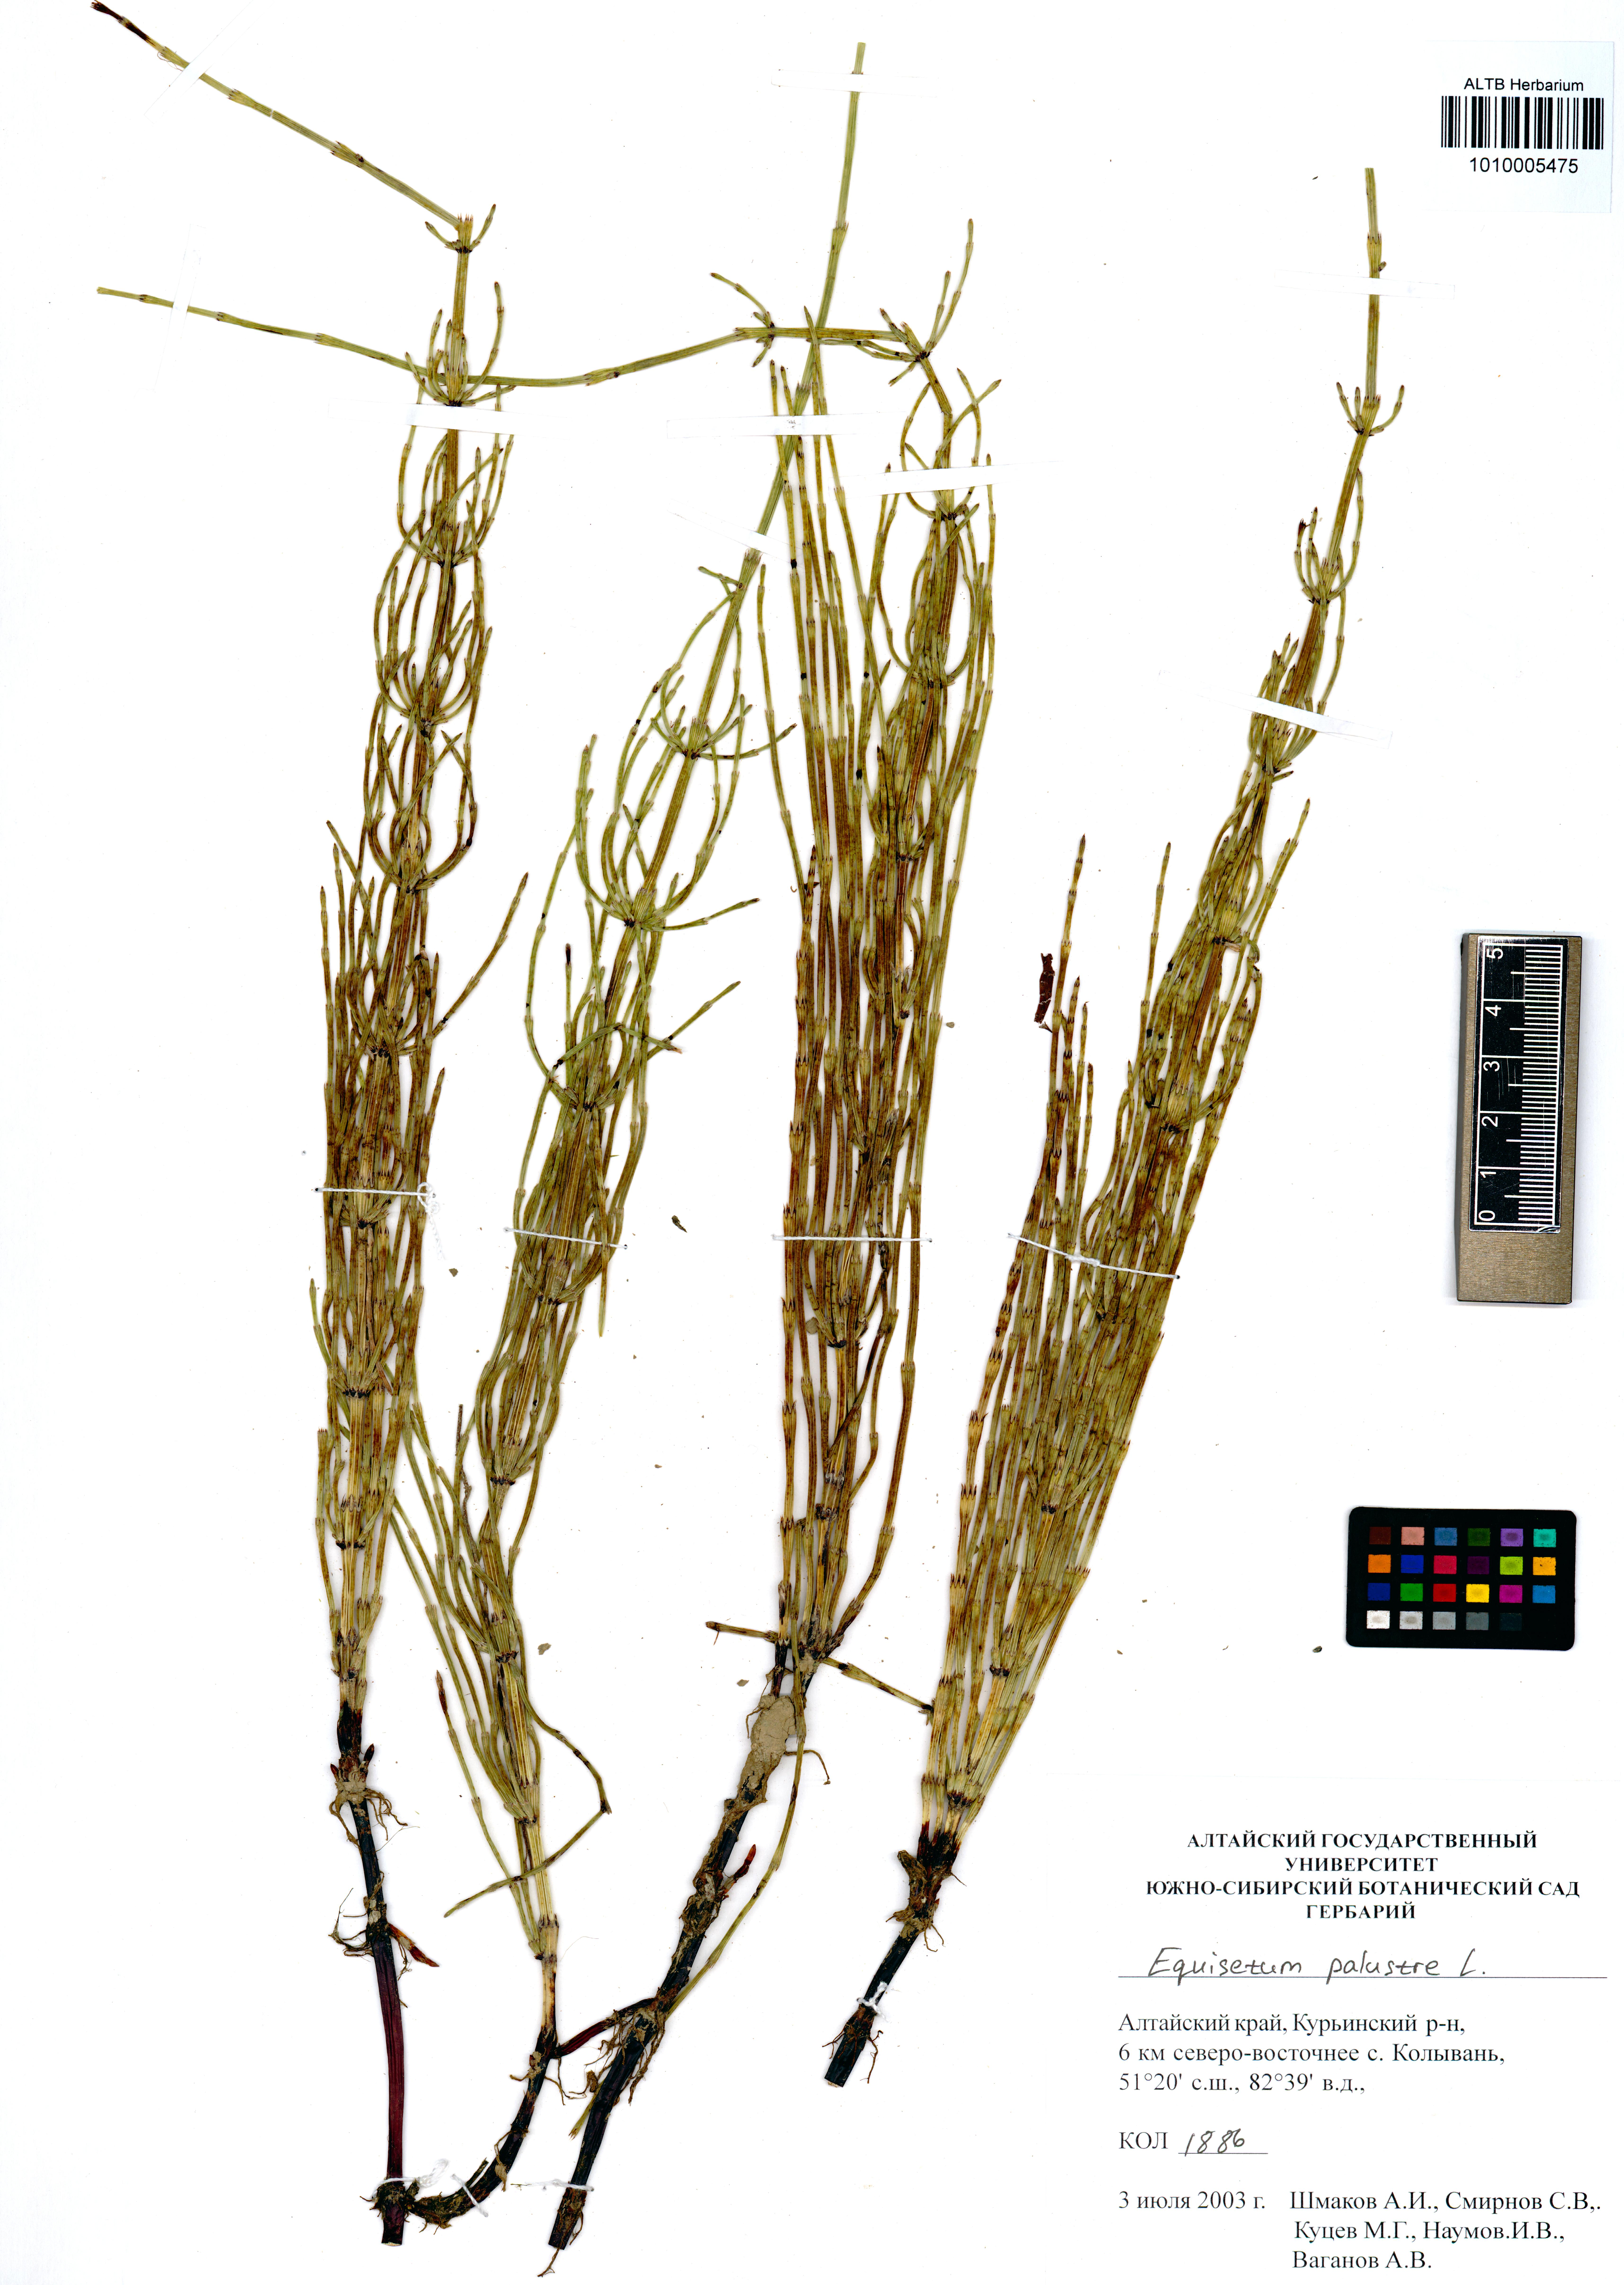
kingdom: Plantae
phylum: Tracheophyta
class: Polypodiopsida
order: Equisetales
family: Equisetaceae
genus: Equisetum
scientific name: Equisetum palustre
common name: Marsh horsetail
